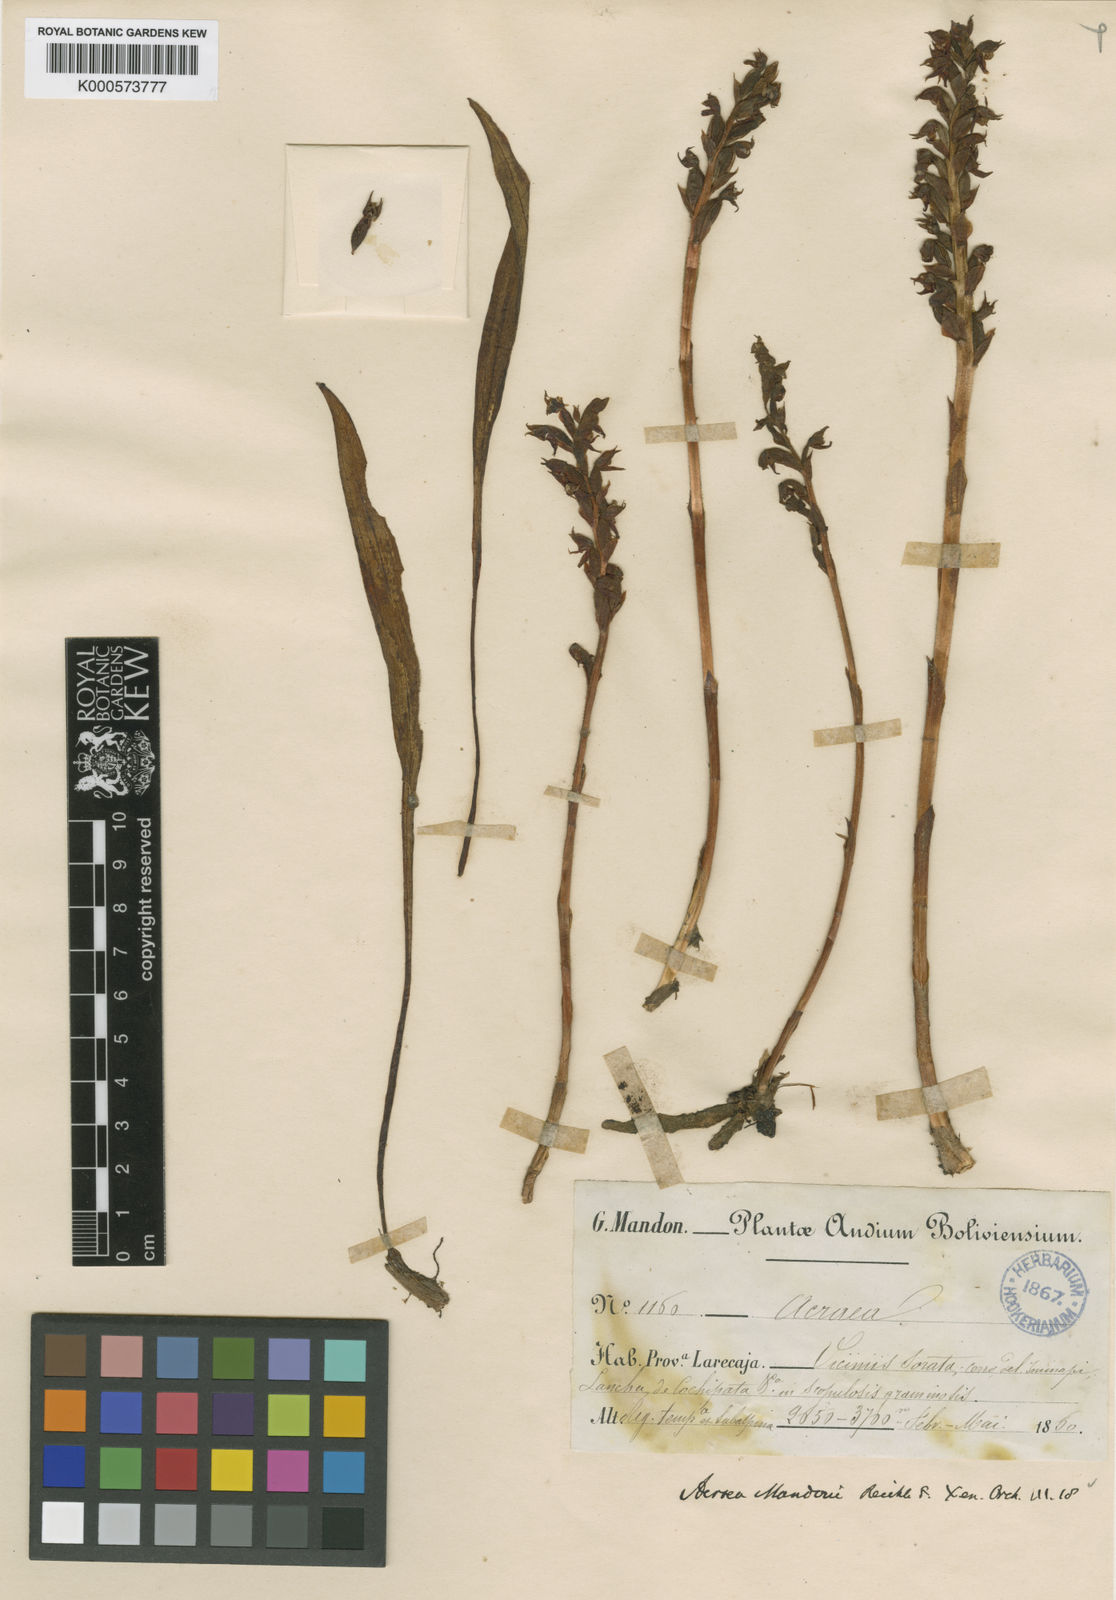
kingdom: Plantae
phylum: Tracheophyta
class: Liliopsida
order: Asparagales
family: Orchidaceae
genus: Pterichis
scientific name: Pterichis mandonii
